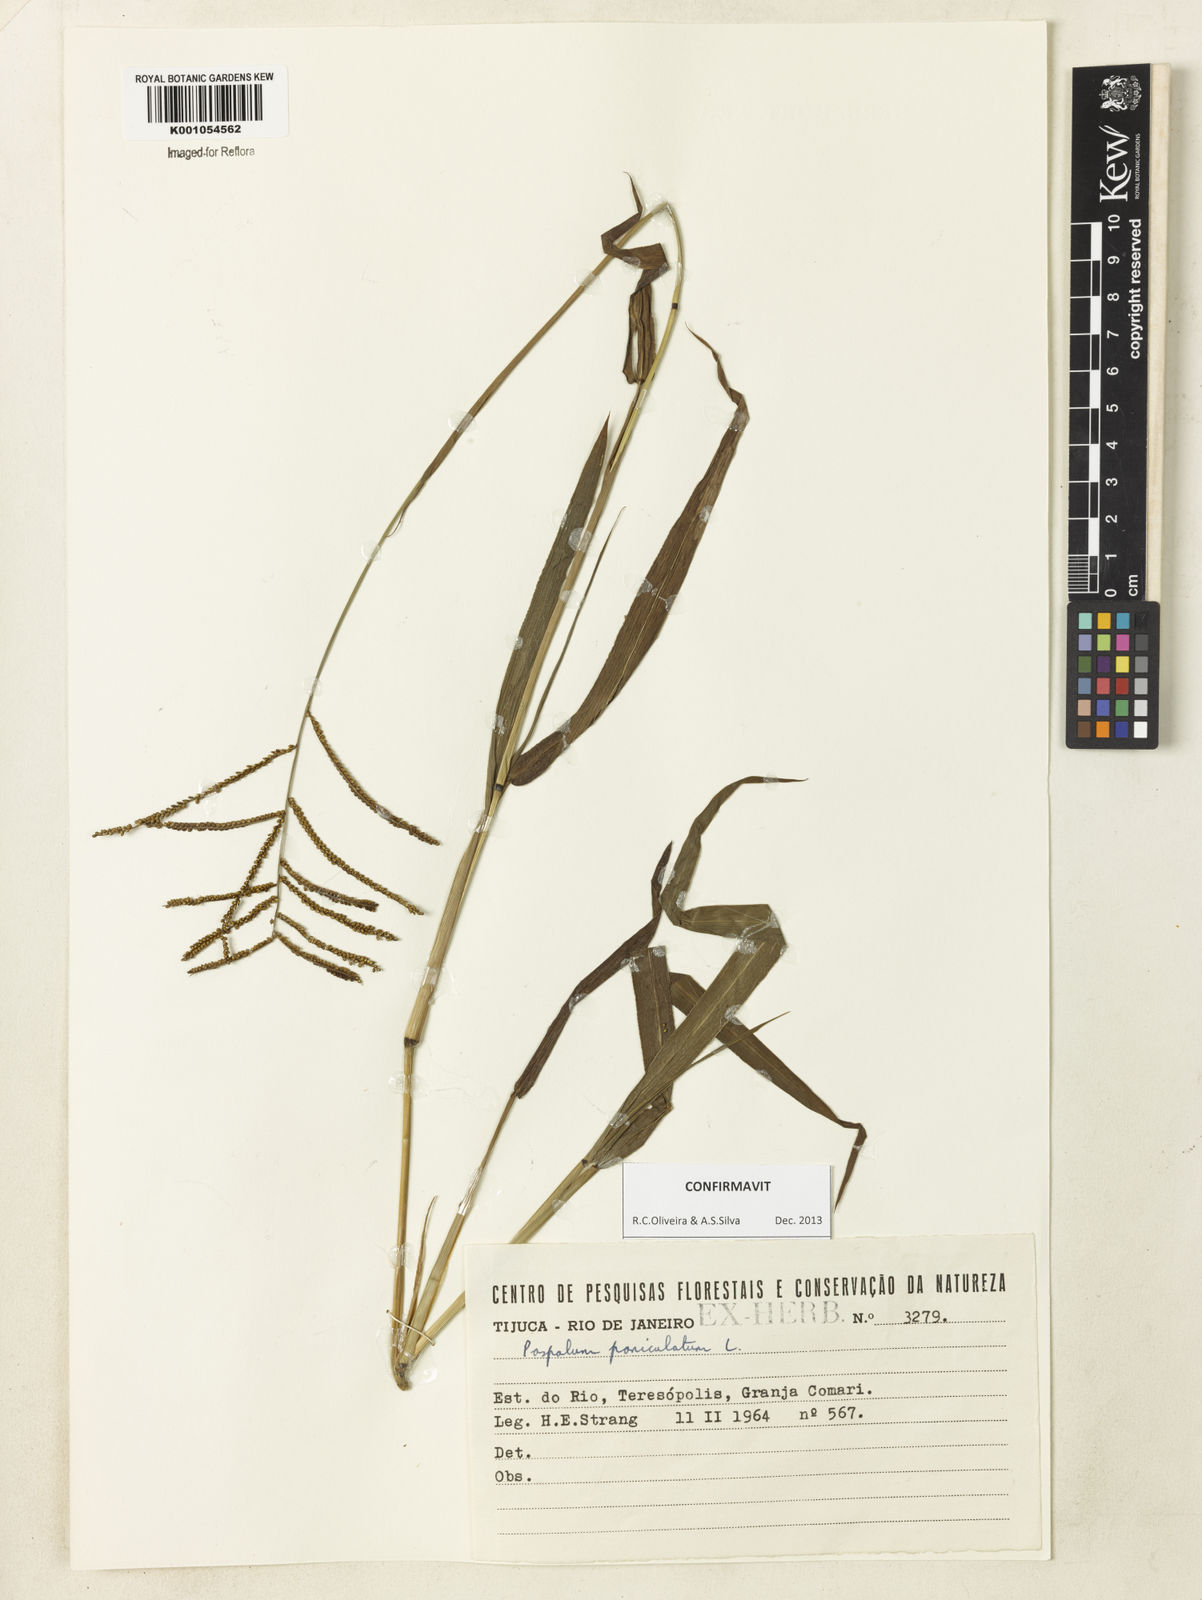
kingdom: Plantae
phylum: Tracheophyta
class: Liliopsida
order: Poales
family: Poaceae
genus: Paspalum
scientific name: Paspalum paniculatum
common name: Arrocillo
